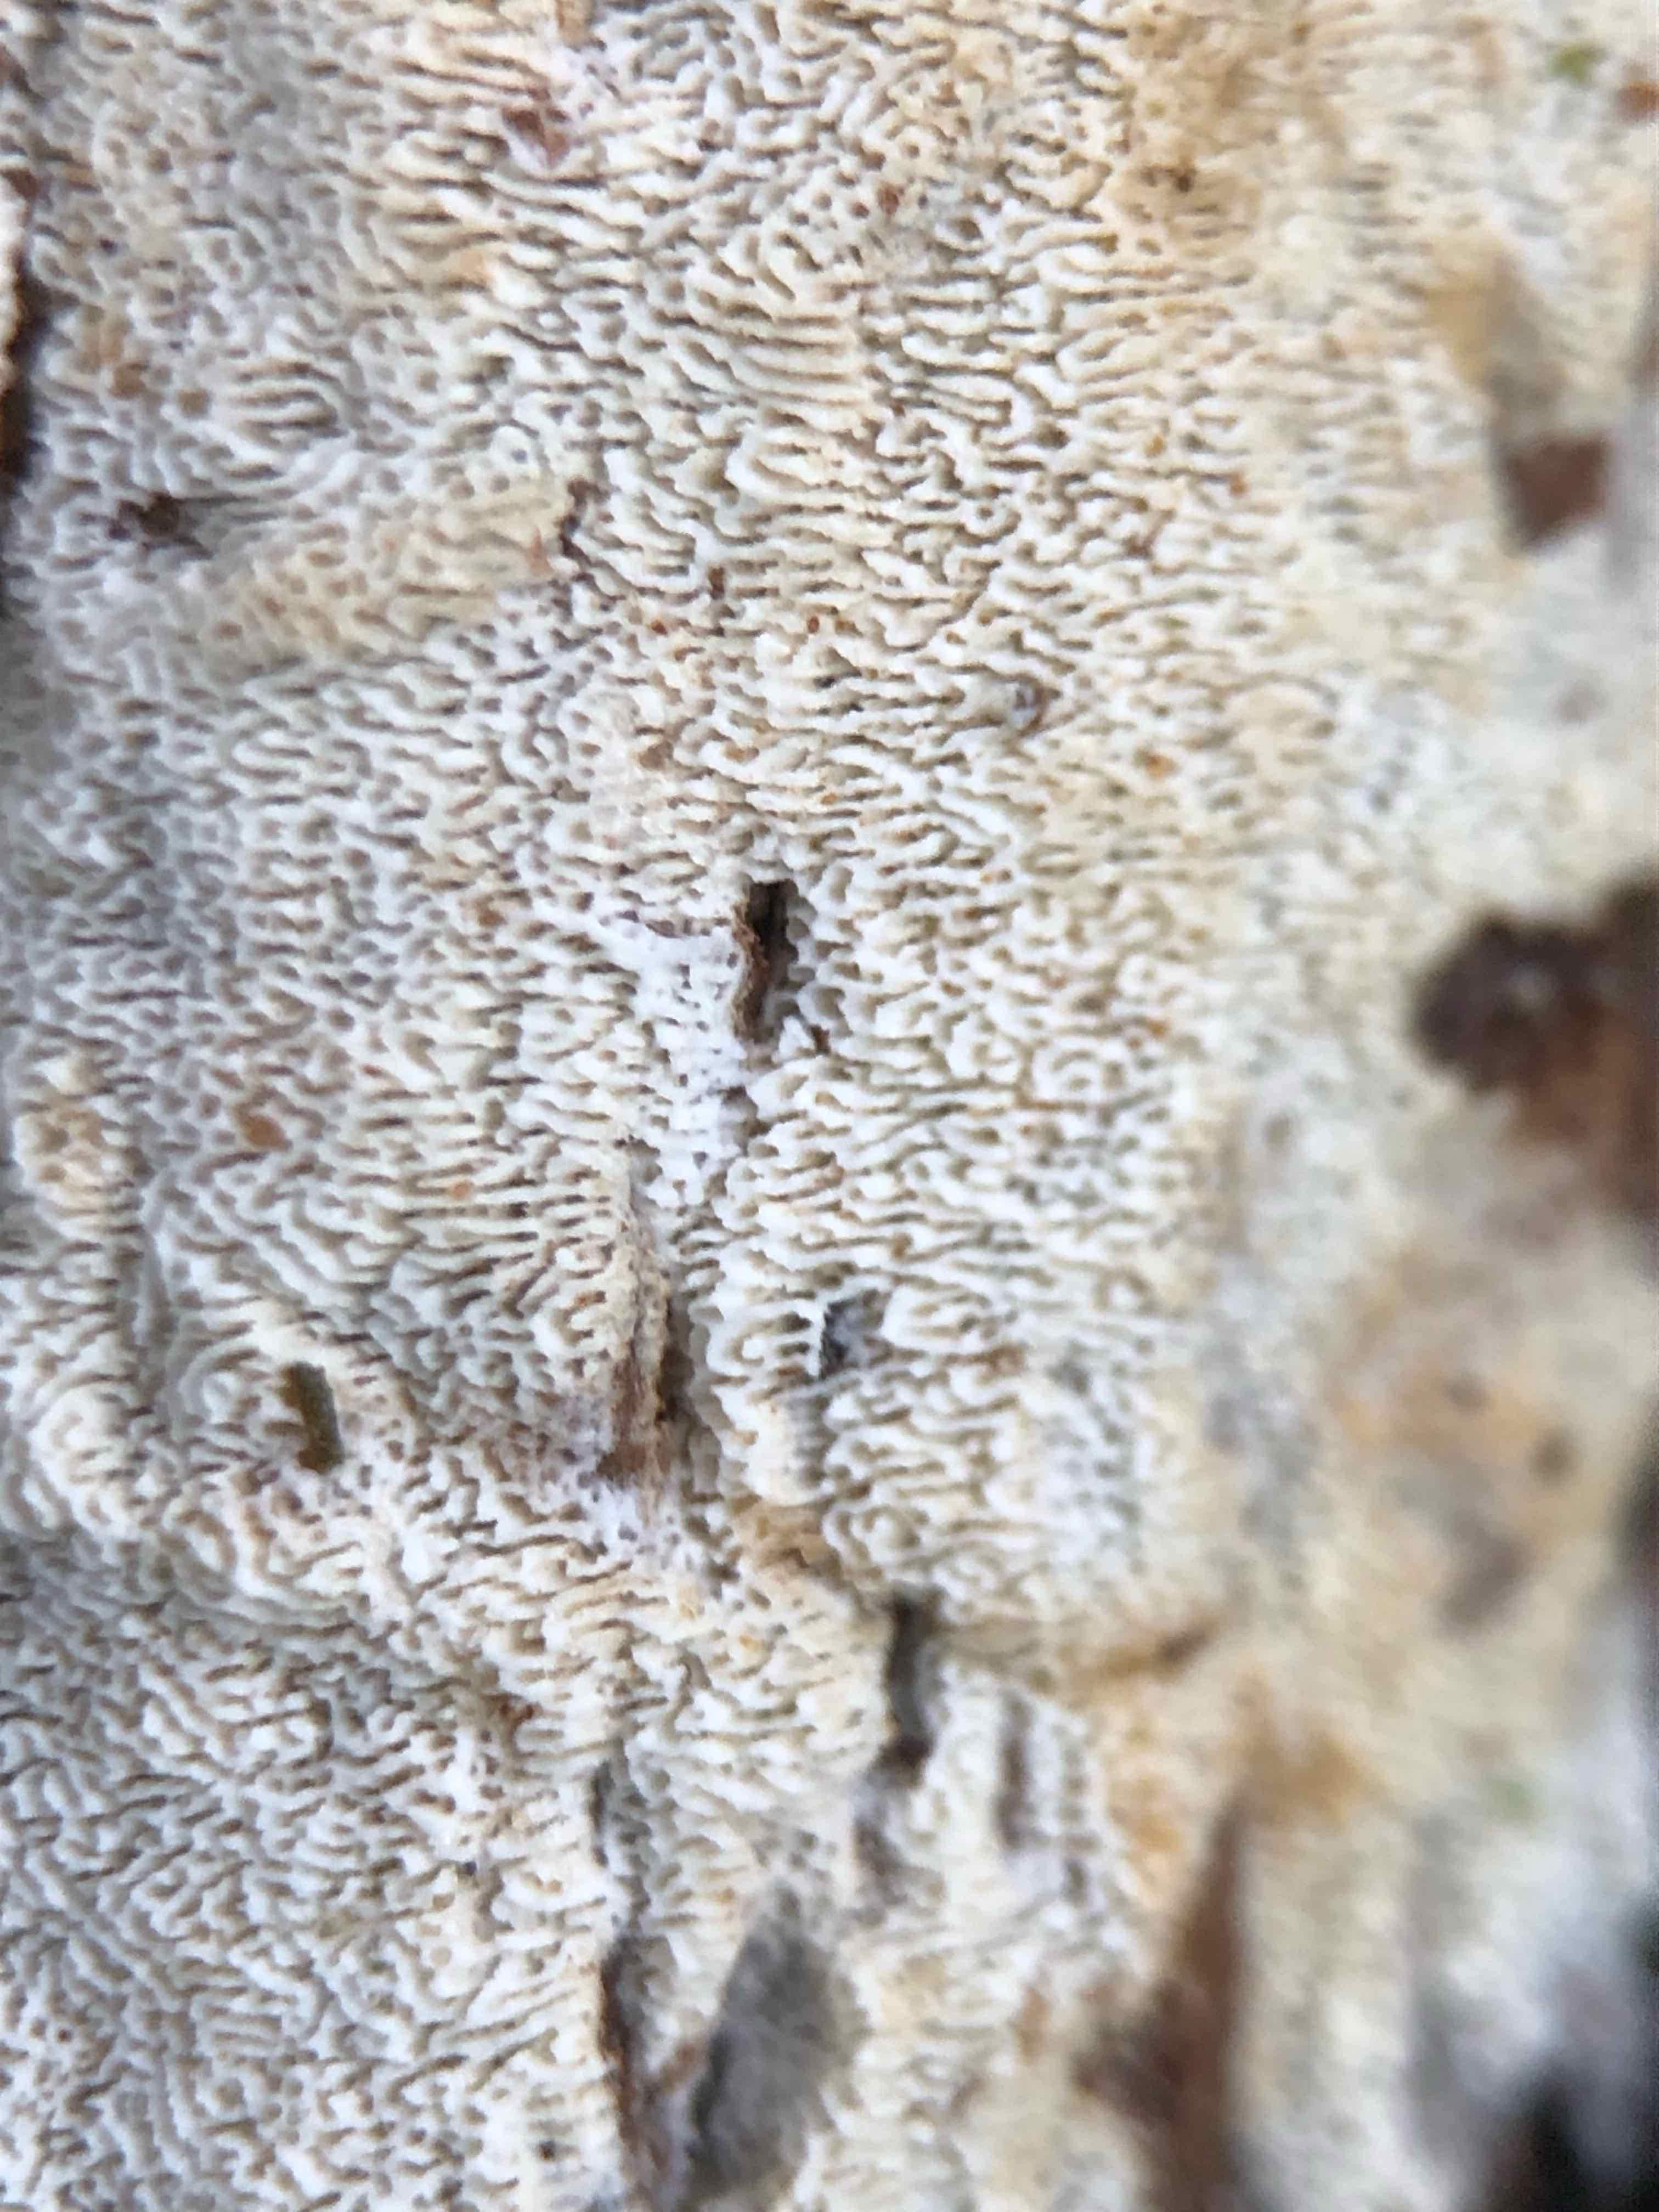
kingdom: Fungi
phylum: Basidiomycota
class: Agaricomycetes
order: Hymenochaetales
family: Schizoporaceae
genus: Xylodon
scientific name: Xylodon subtropicus
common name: labyrint-tandsvamp
